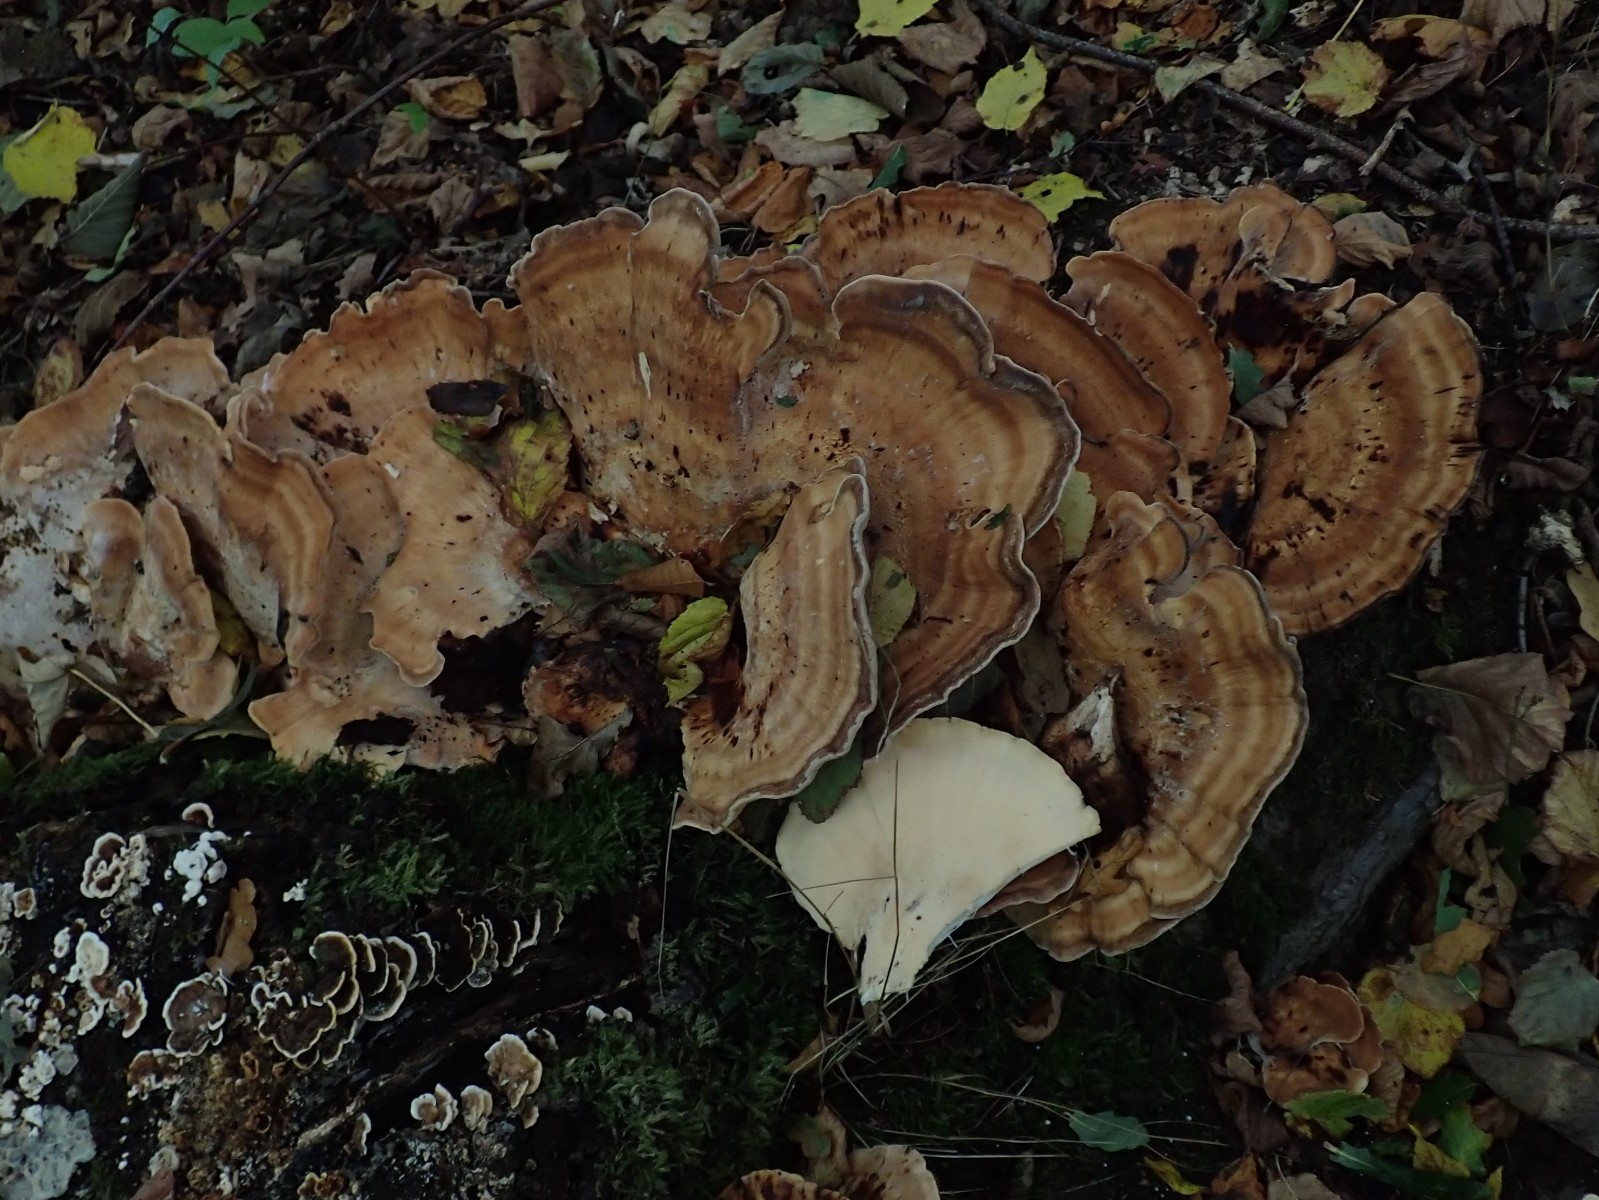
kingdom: Fungi
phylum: Basidiomycota
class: Agaricomycetes
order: Polyporales
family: Meripilaceae
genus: Meripilus
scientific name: Meripilus giganteus
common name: kæmpeporesvamp
